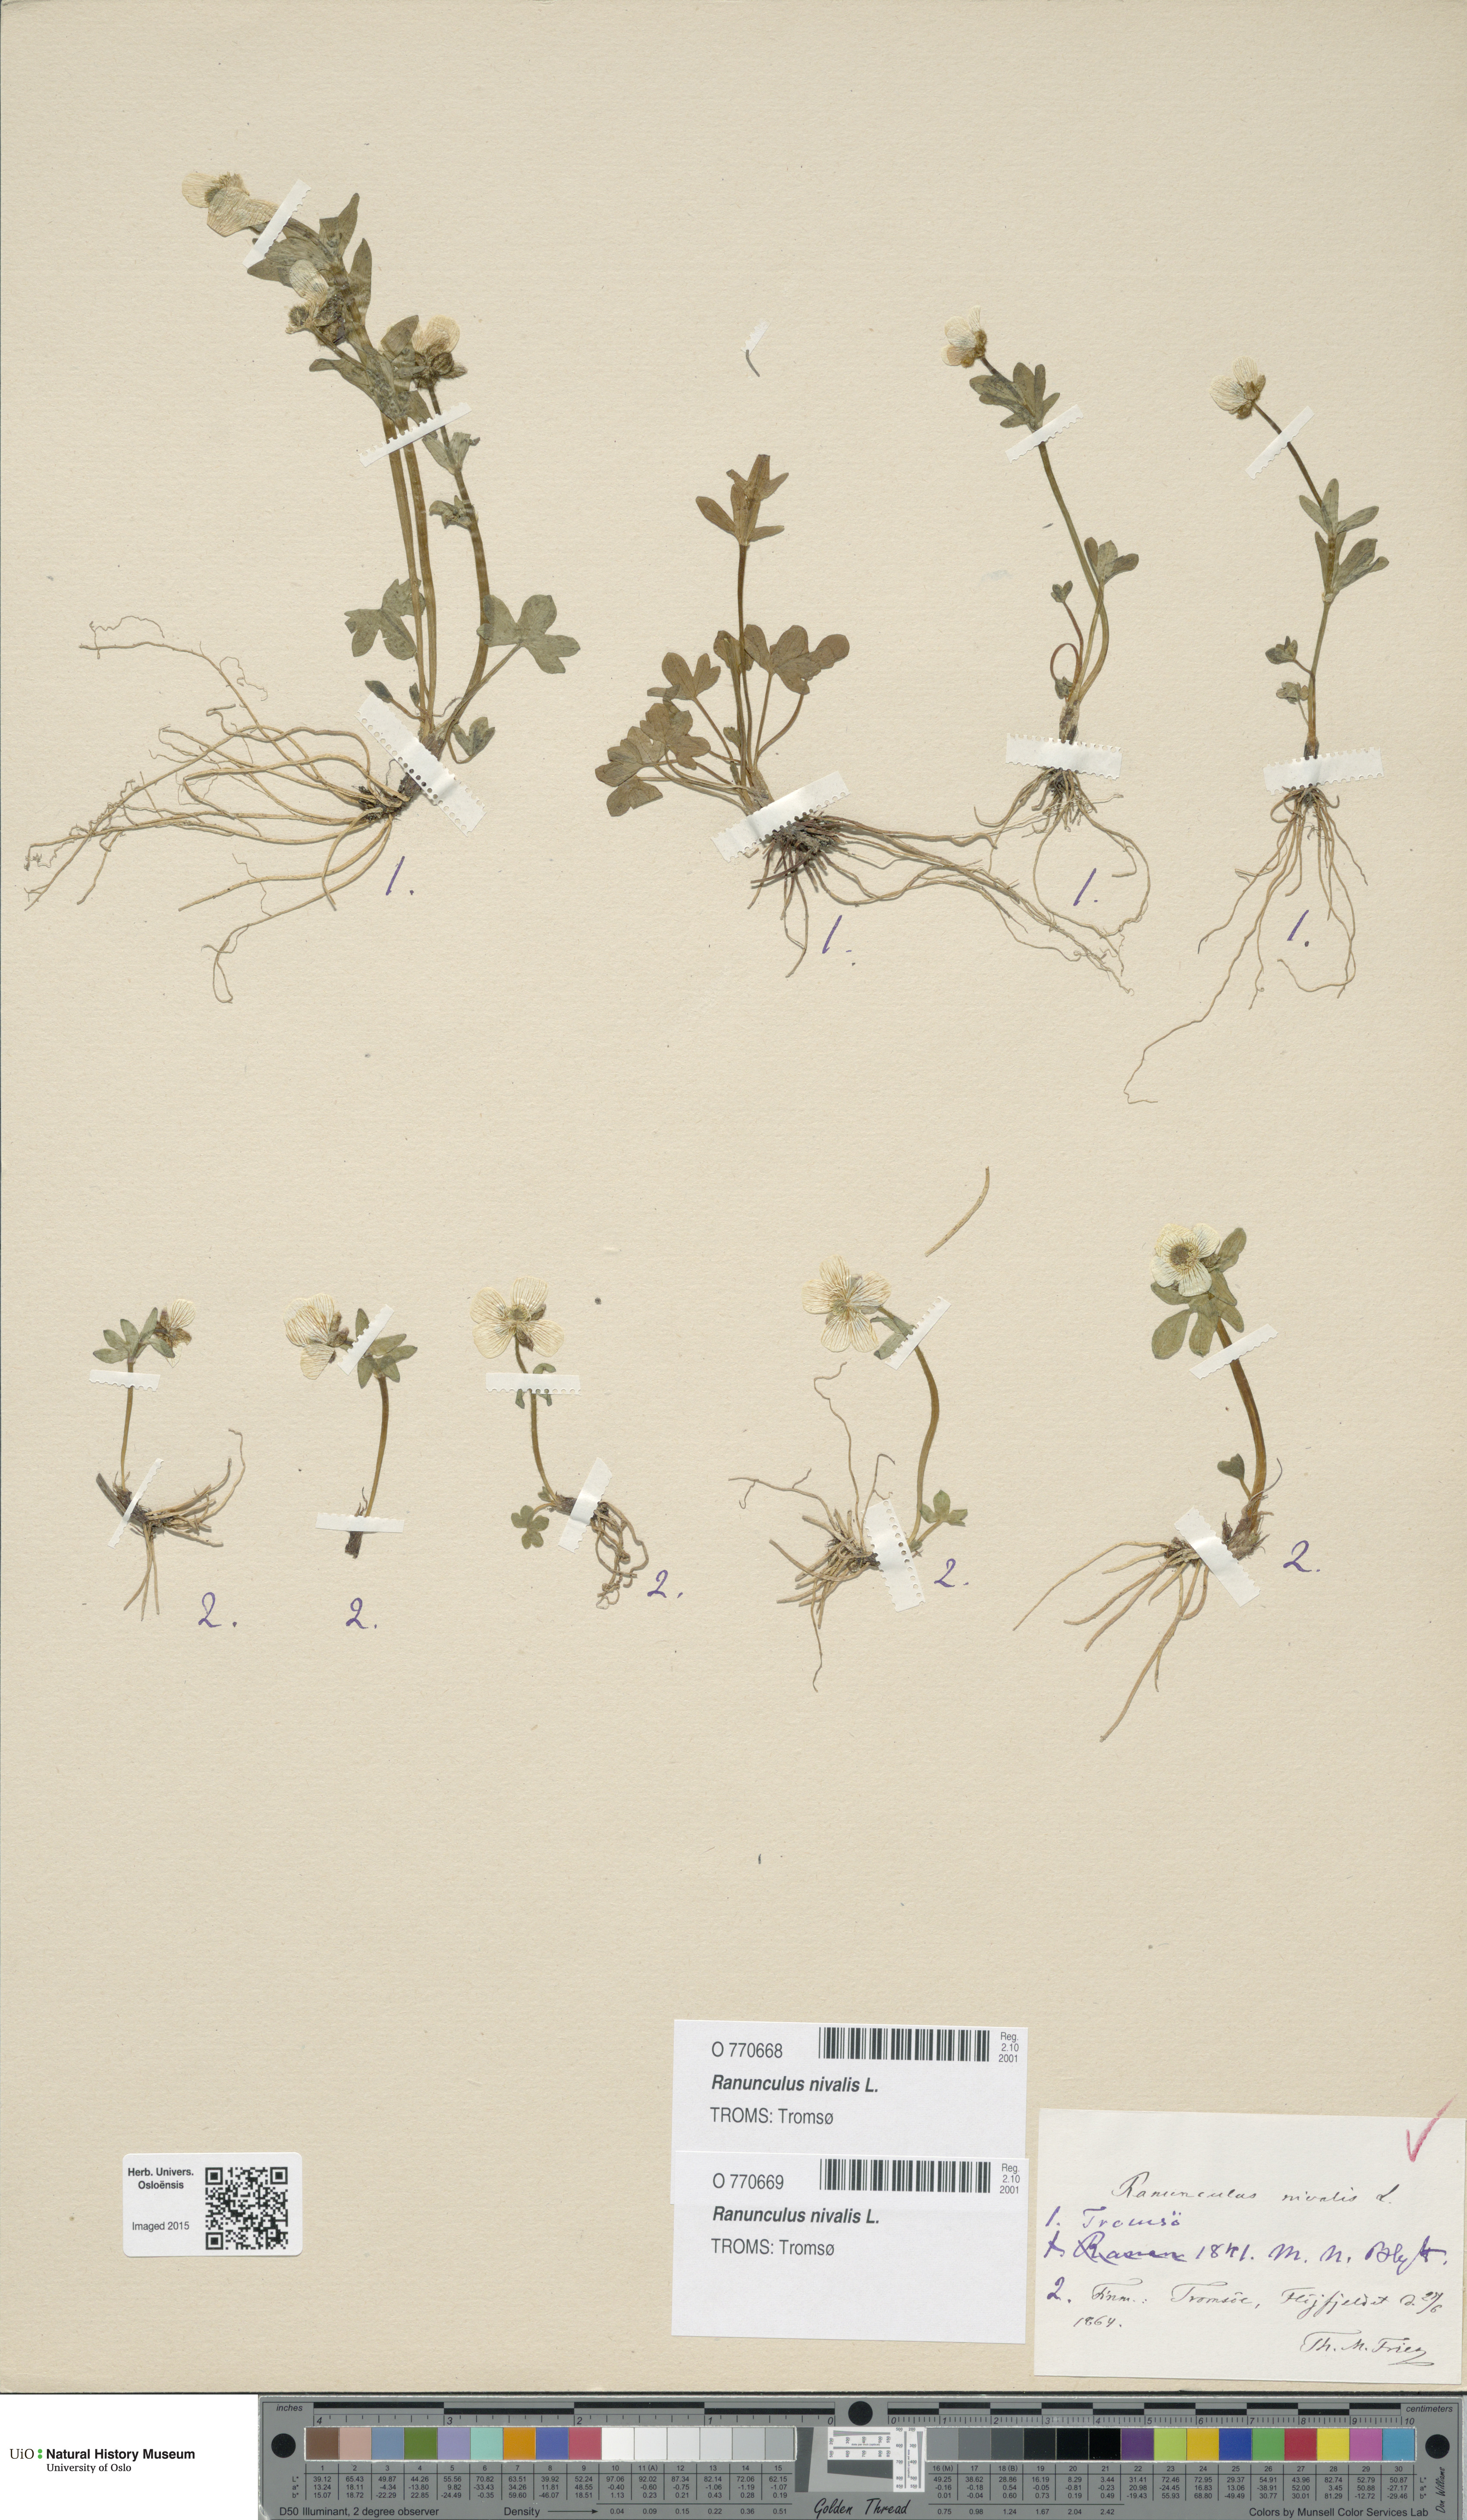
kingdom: Plantae
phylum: Tracheophyta
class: Magnoliopsida
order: Ranunculales
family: Ranunculaceae
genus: Ranunculus
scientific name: Ranunculus nivalis
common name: Snow buttercup
